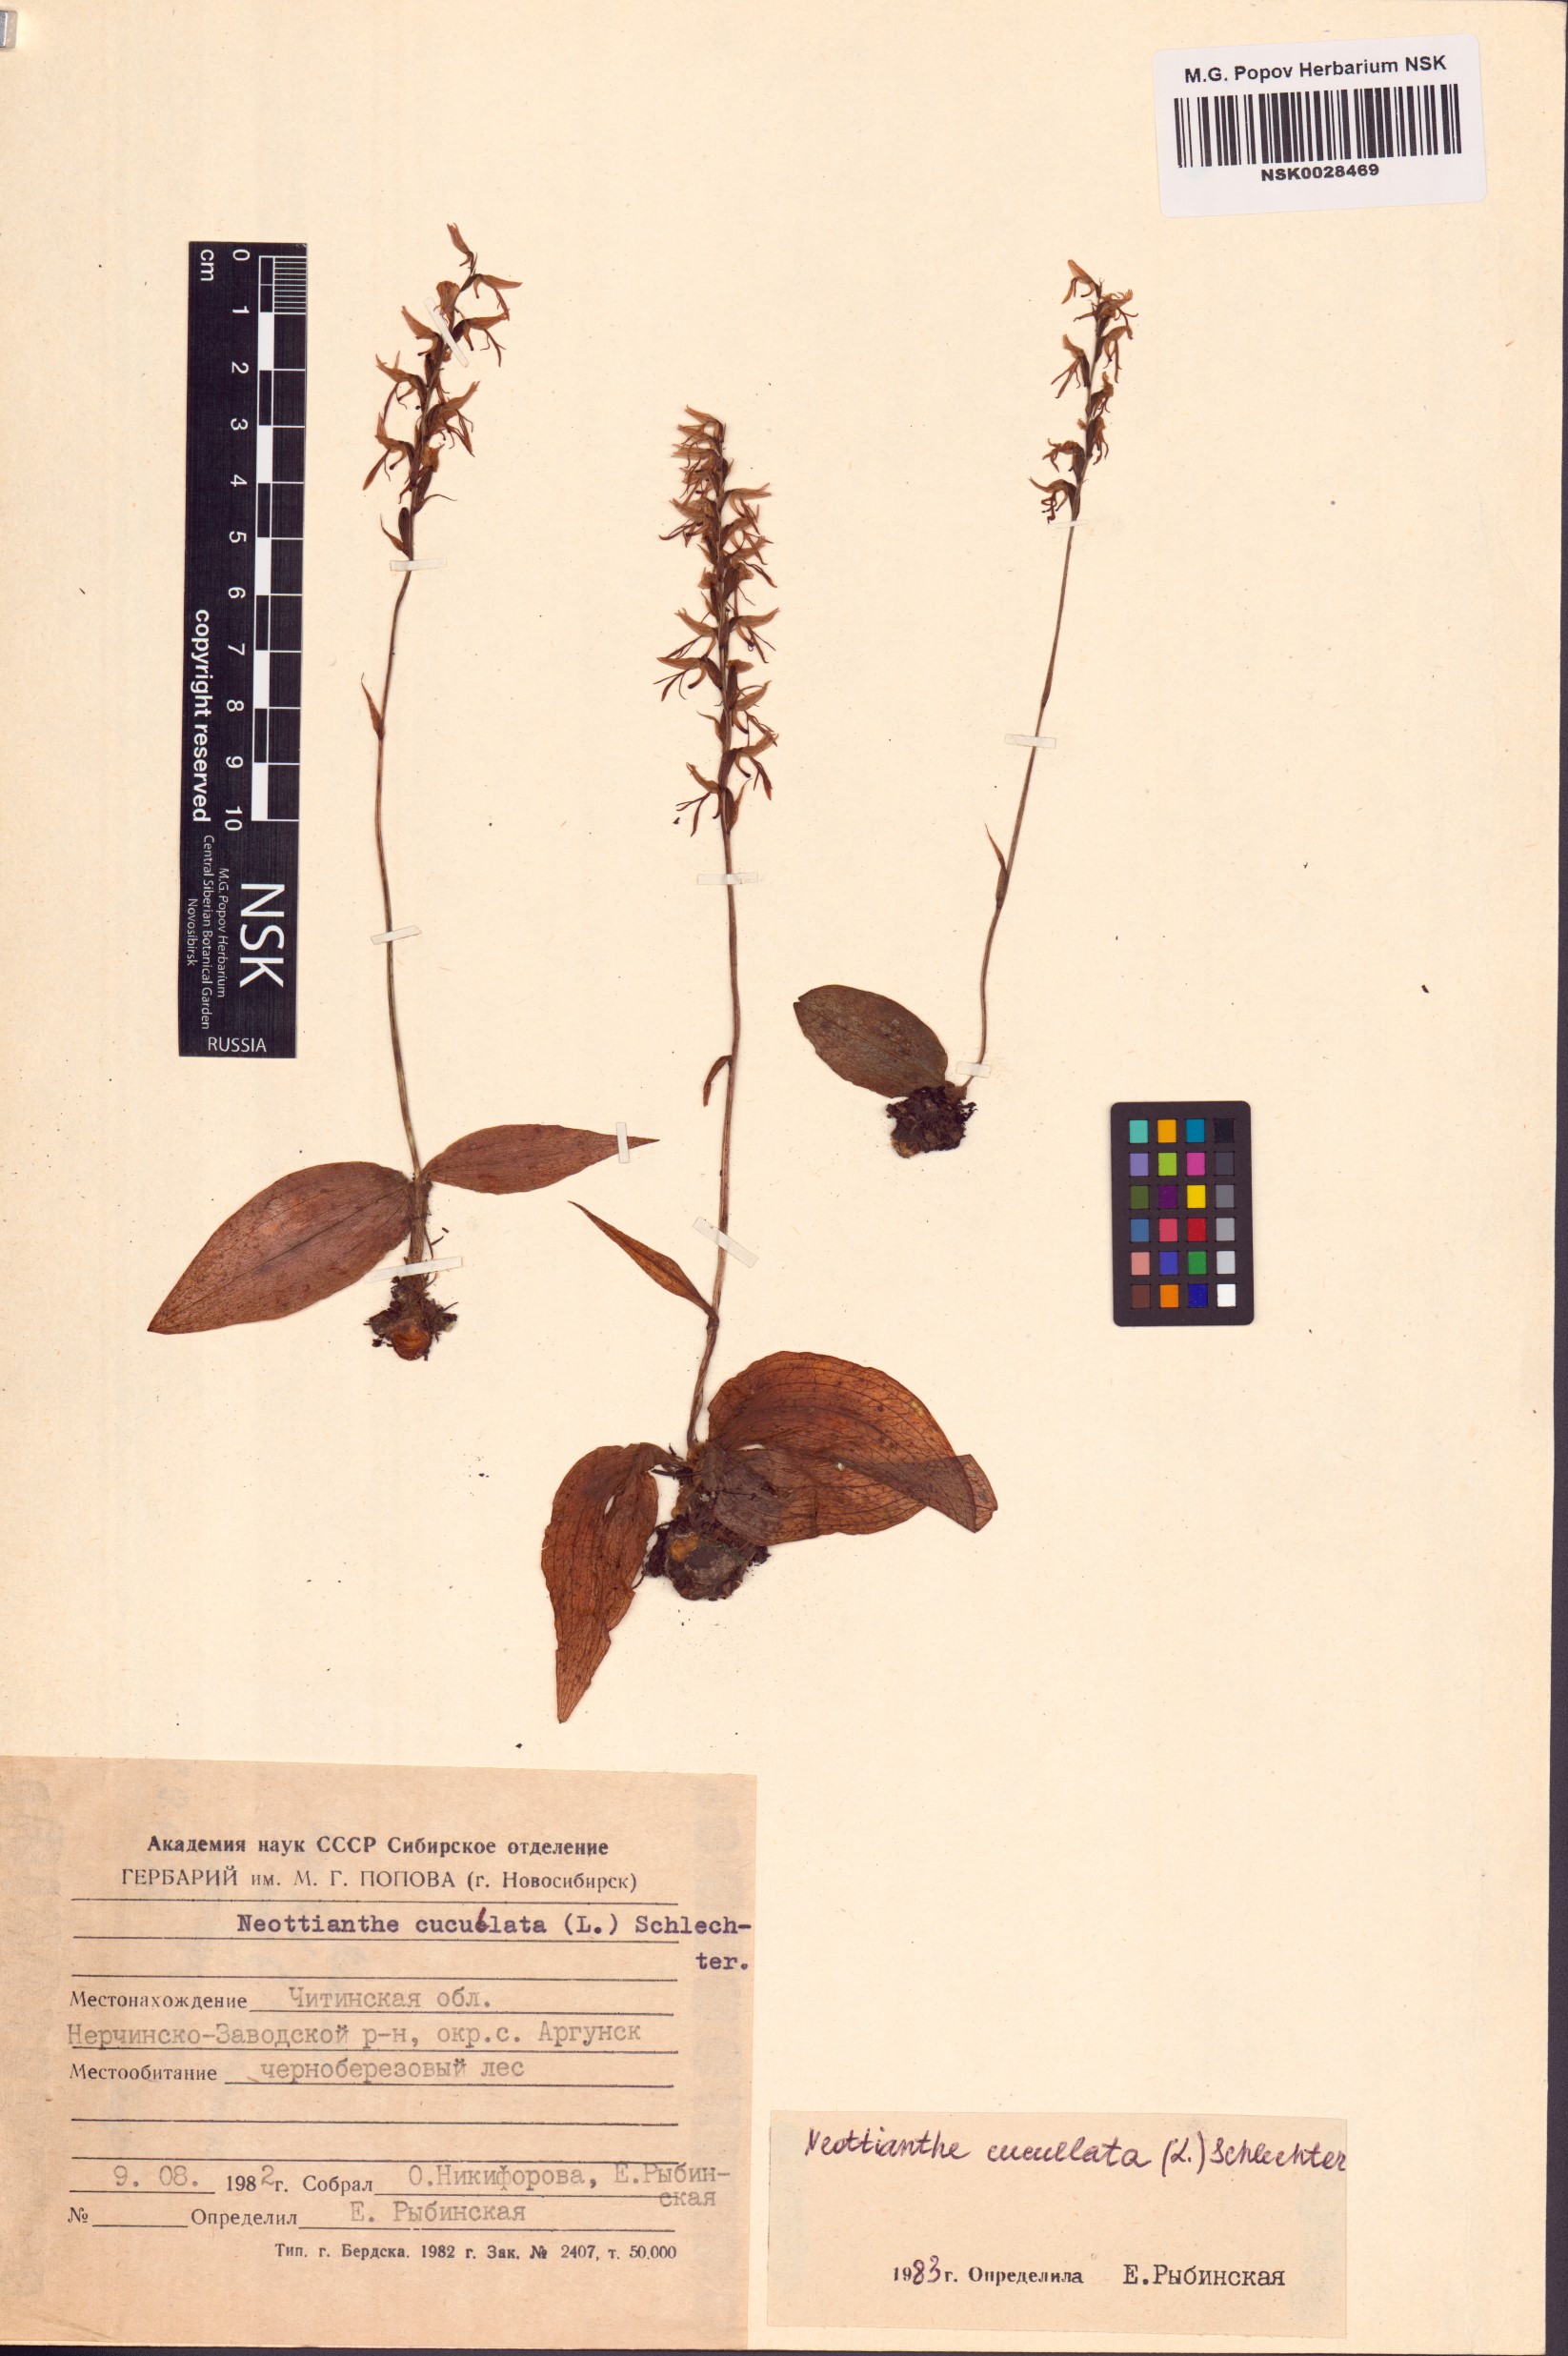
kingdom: Plantae
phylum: Tracheophyta
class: Liliopsida
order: Asparagales
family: Orchidaceae
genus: Hemipilia
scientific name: Hemipilia cucullata
